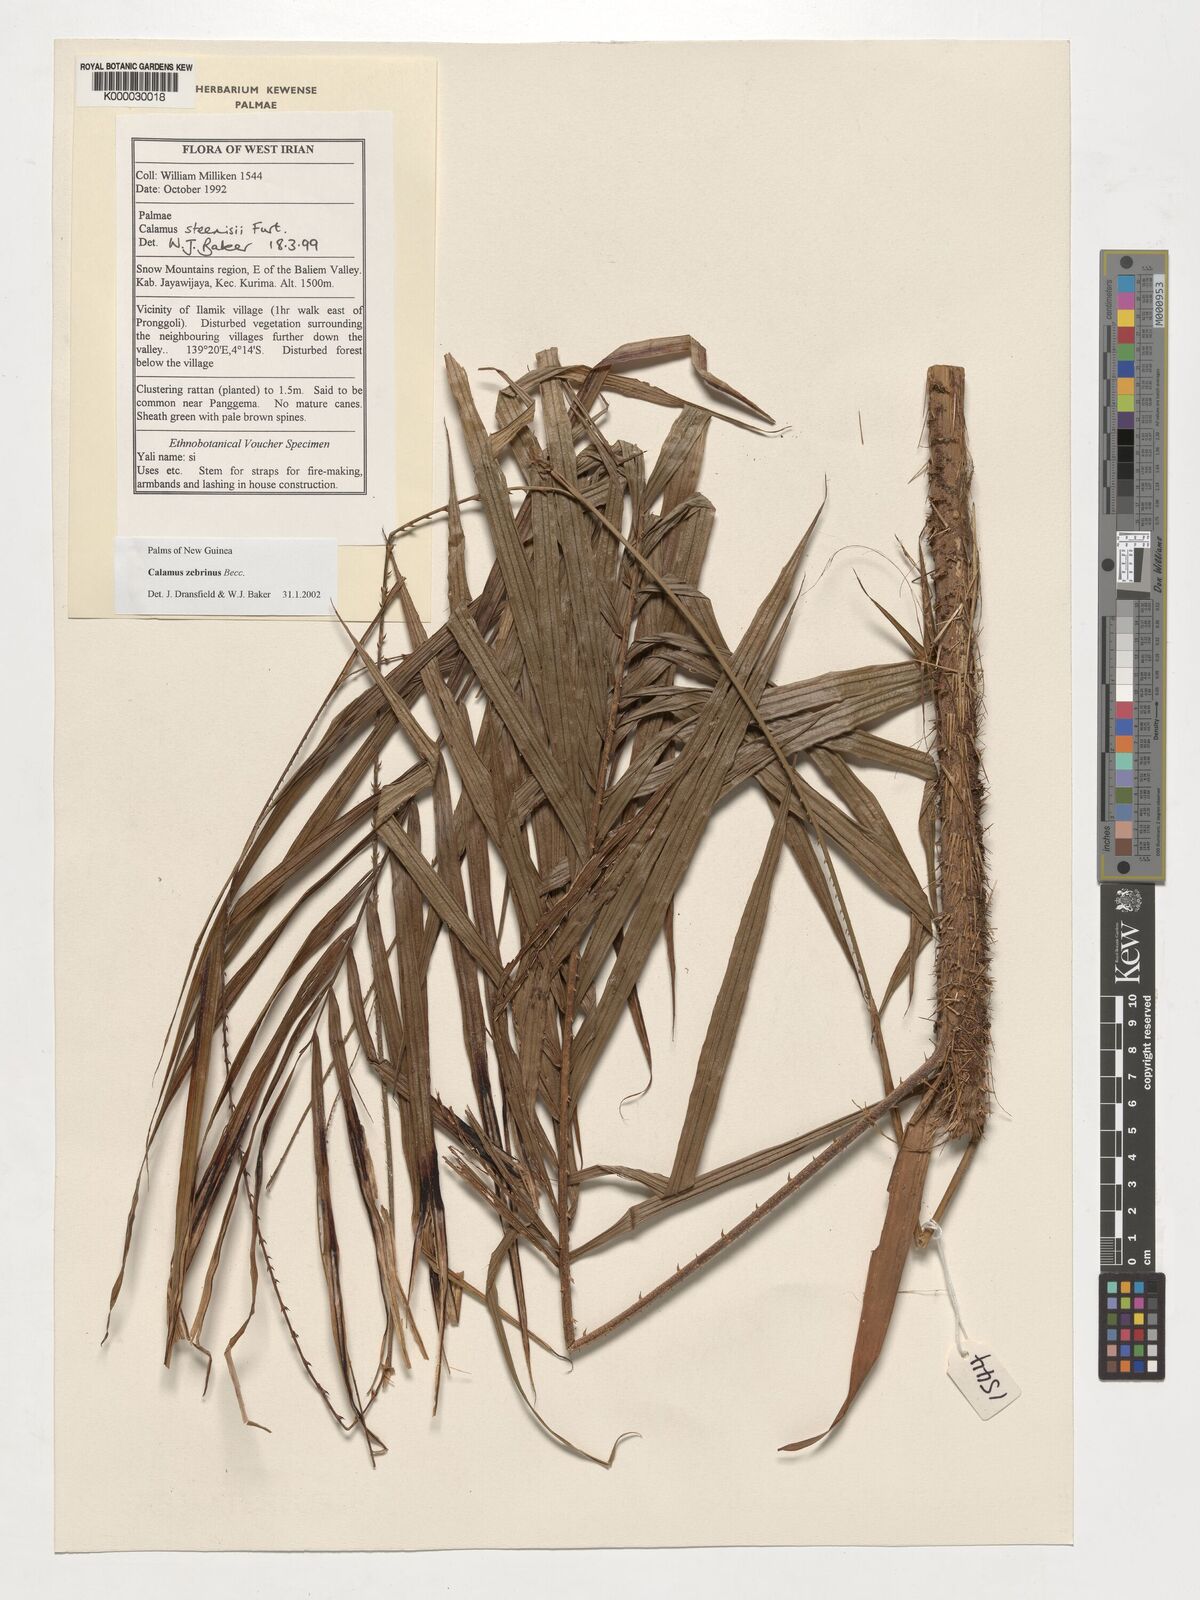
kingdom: Plantae
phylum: Tracheophyta
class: Liliopsida
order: Arecales
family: Arecaceae
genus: Calamus
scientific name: Calamus zebrinus
